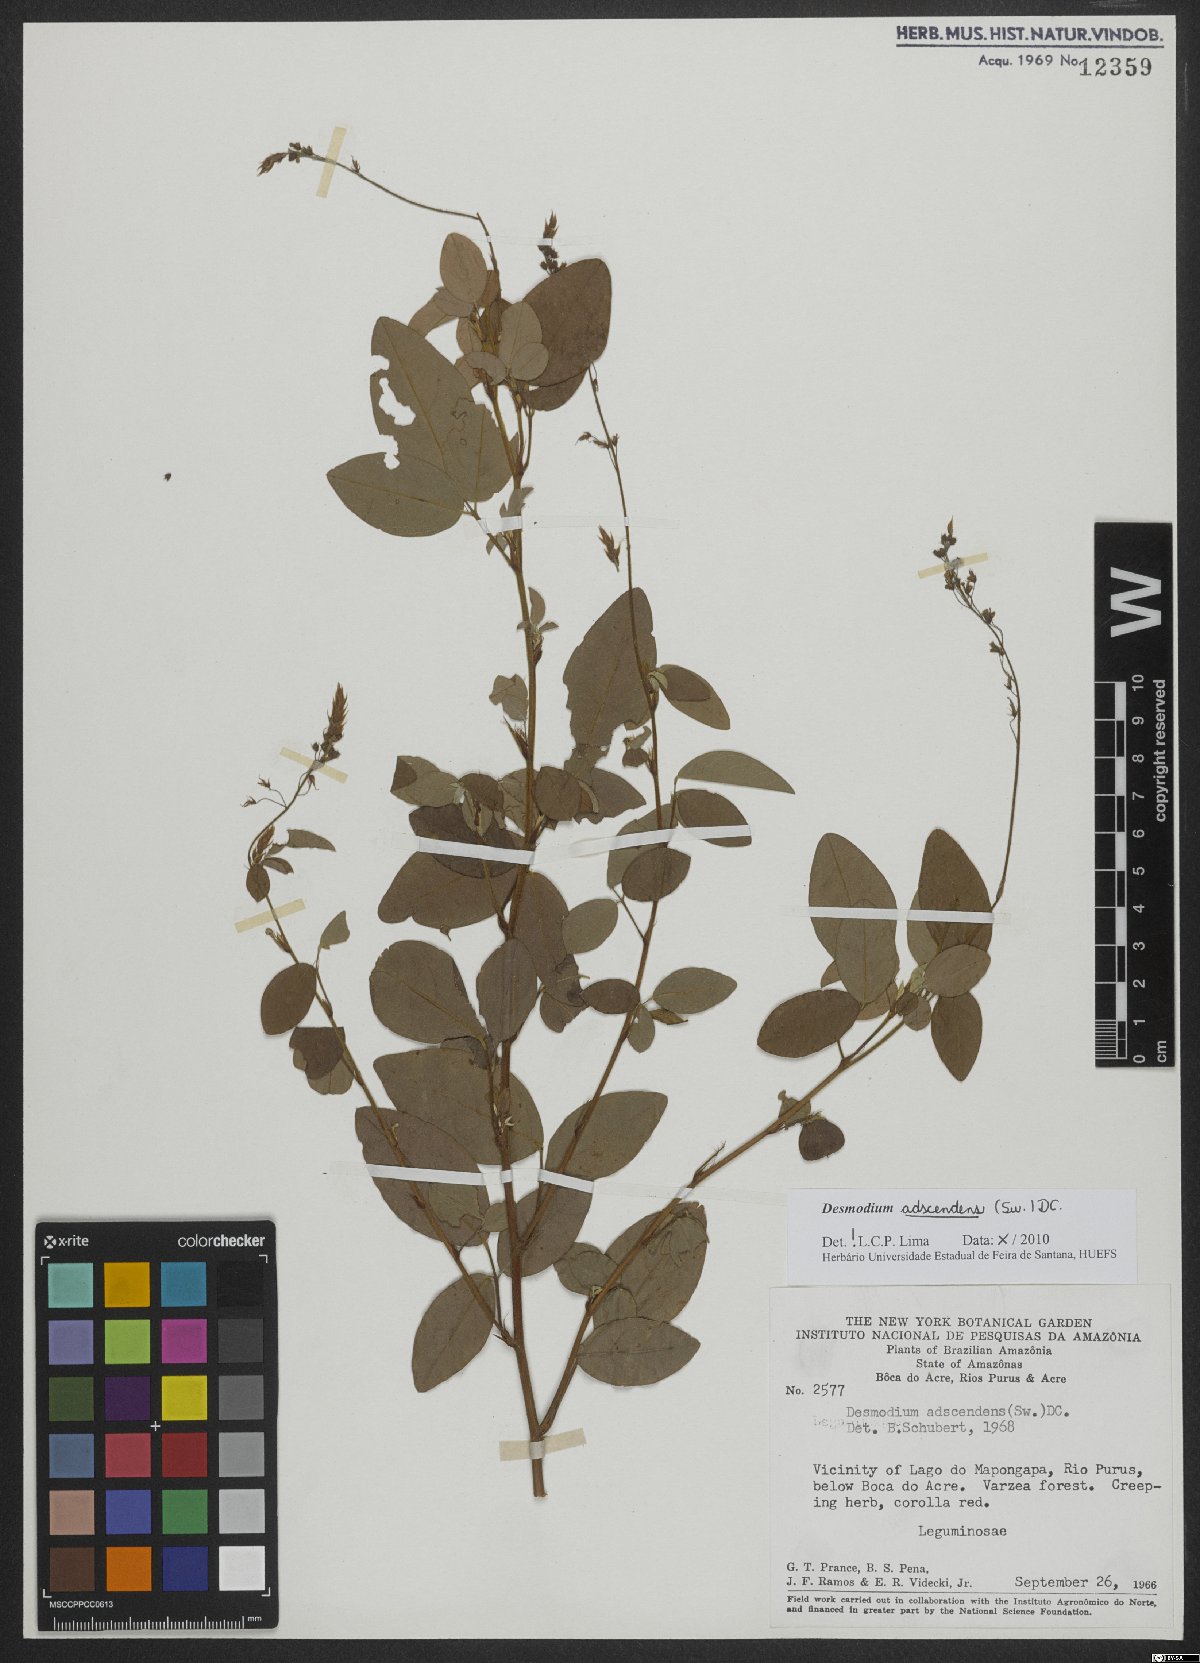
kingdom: Plantae
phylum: Tracheophyta
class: Magnoliopsida
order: Fabales
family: Fabaceae
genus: Grona
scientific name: Grona adscendens
